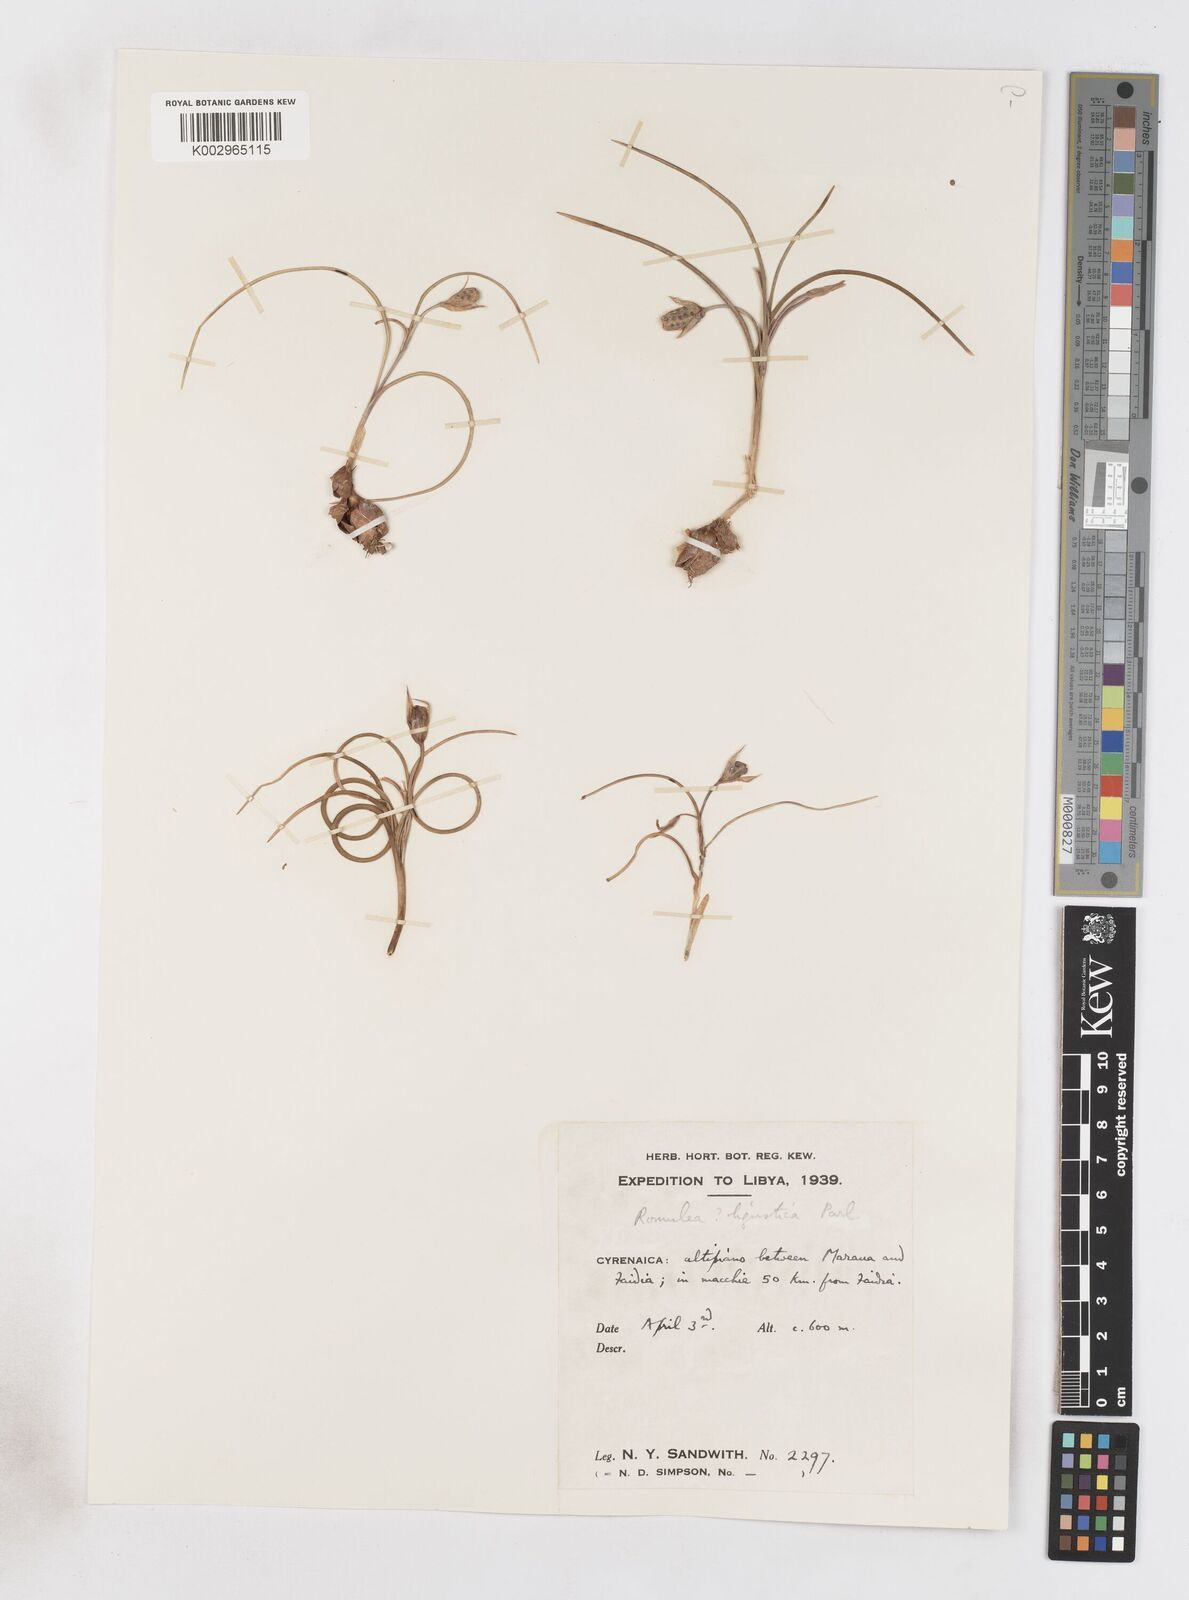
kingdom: Plantae
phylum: Tracheophyta
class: Liliopsida
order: Asparagales
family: Iridaceae
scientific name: Iridaceae
